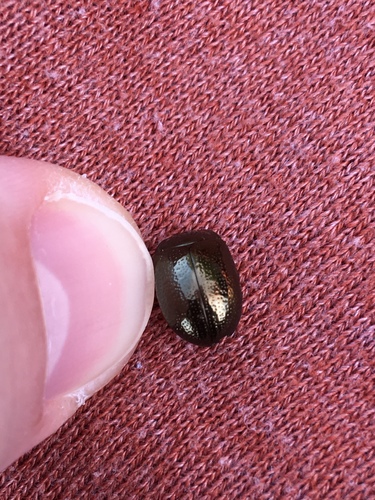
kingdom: Animalia
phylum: Arthropoda
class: Insecta
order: Coleoptera
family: Chrysomelidae
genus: Chrysolina
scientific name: Chrysolina bankii
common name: Leaf beetle
